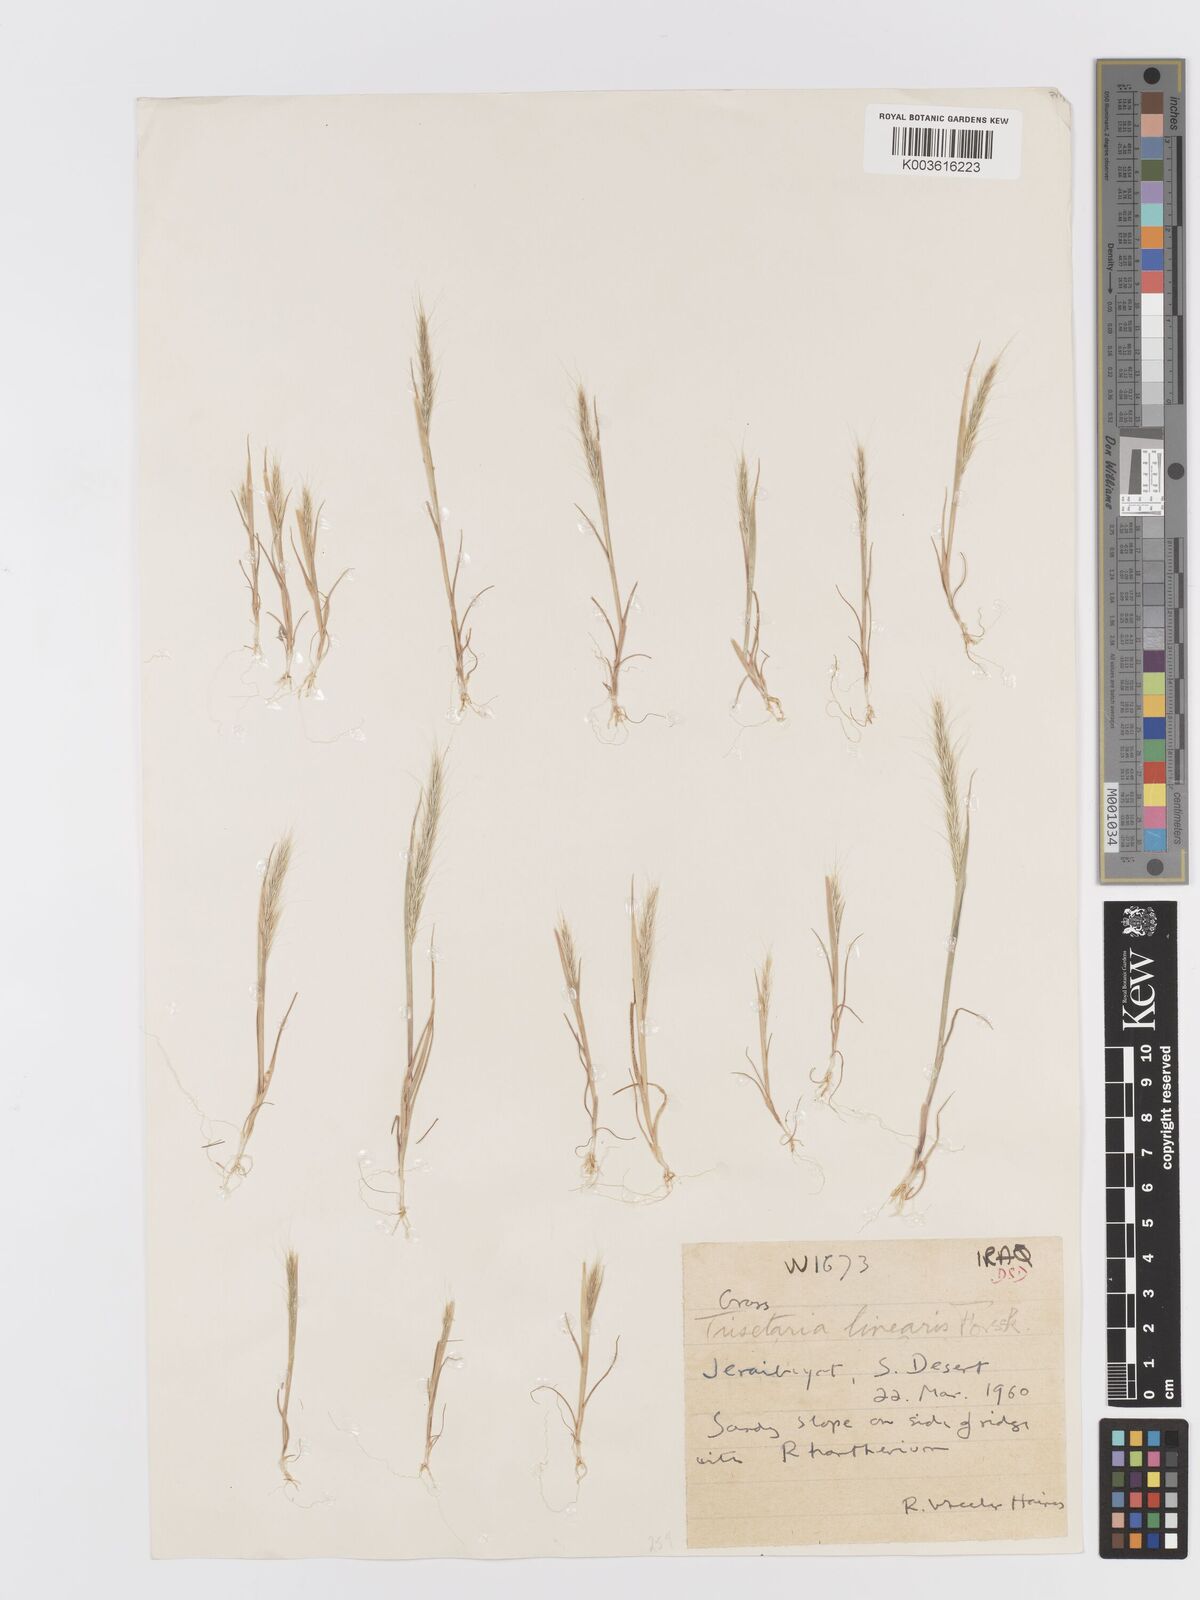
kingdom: Plantae
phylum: Tracheophyta
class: Liliopsida
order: Poales
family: Poaceae
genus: Trisetaria
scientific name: Trisetaria linearis
